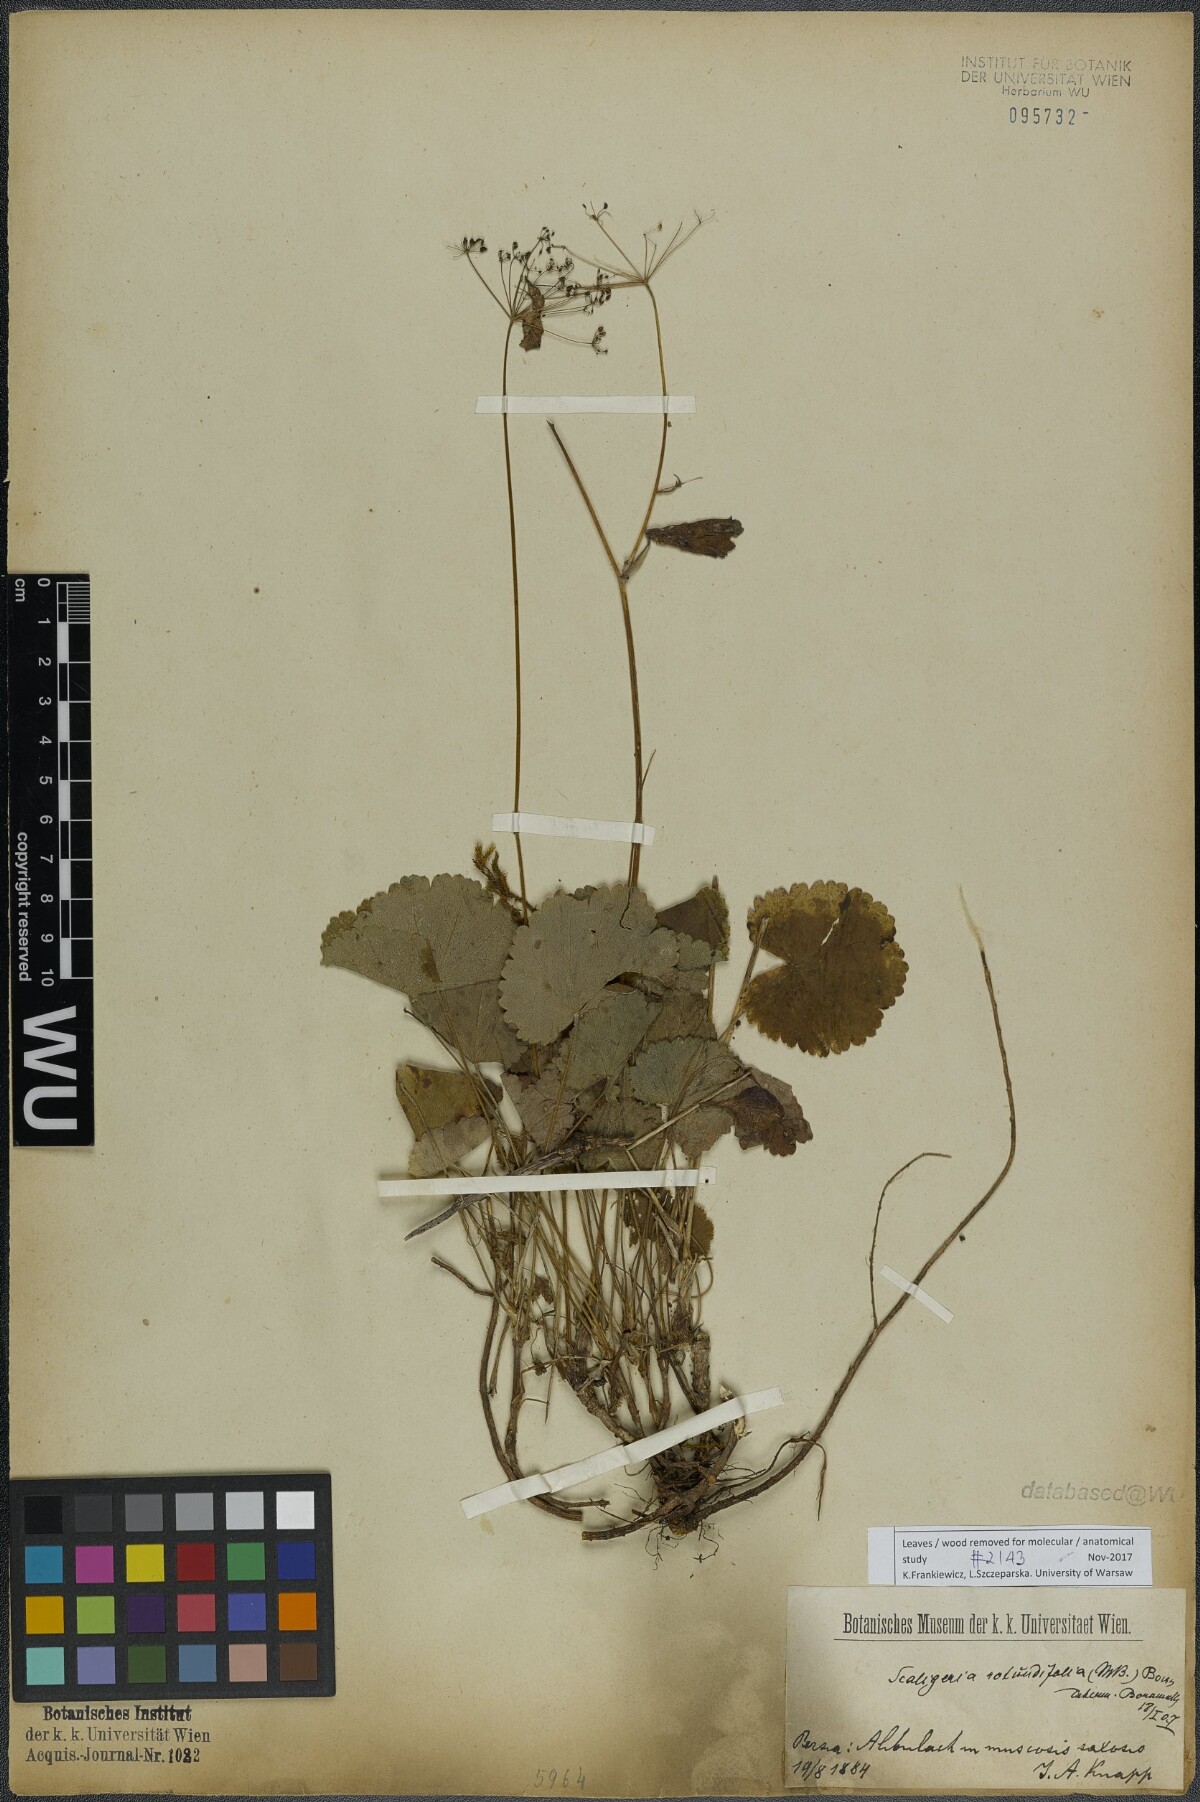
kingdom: Plantae
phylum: Tracheophyta
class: Magnoliopsida
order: Apiales
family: Apiaceae
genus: Pimpinella
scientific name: Pimpinella tripartita
